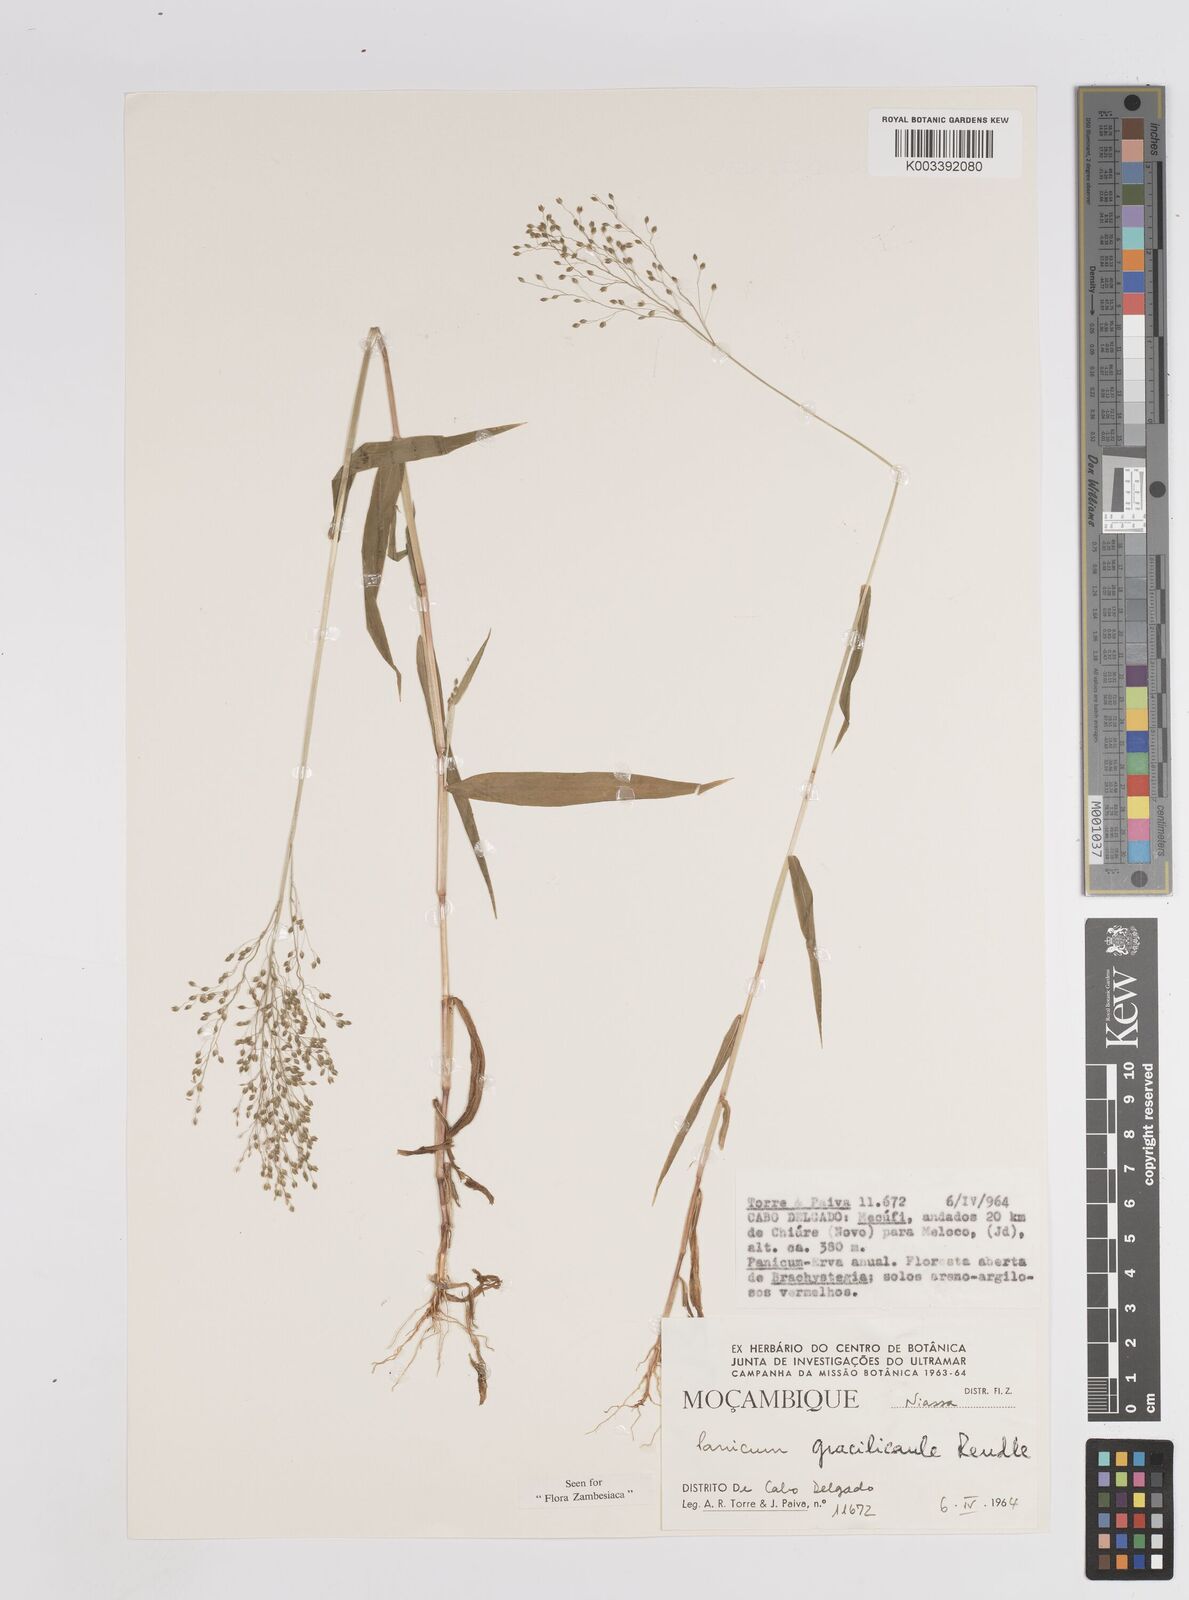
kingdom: Plantae
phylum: Tracheophyta
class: Liliopsida
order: Poales
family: Poaceae
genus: Trichanthecium
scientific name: Trichanthecium gracilicaule
